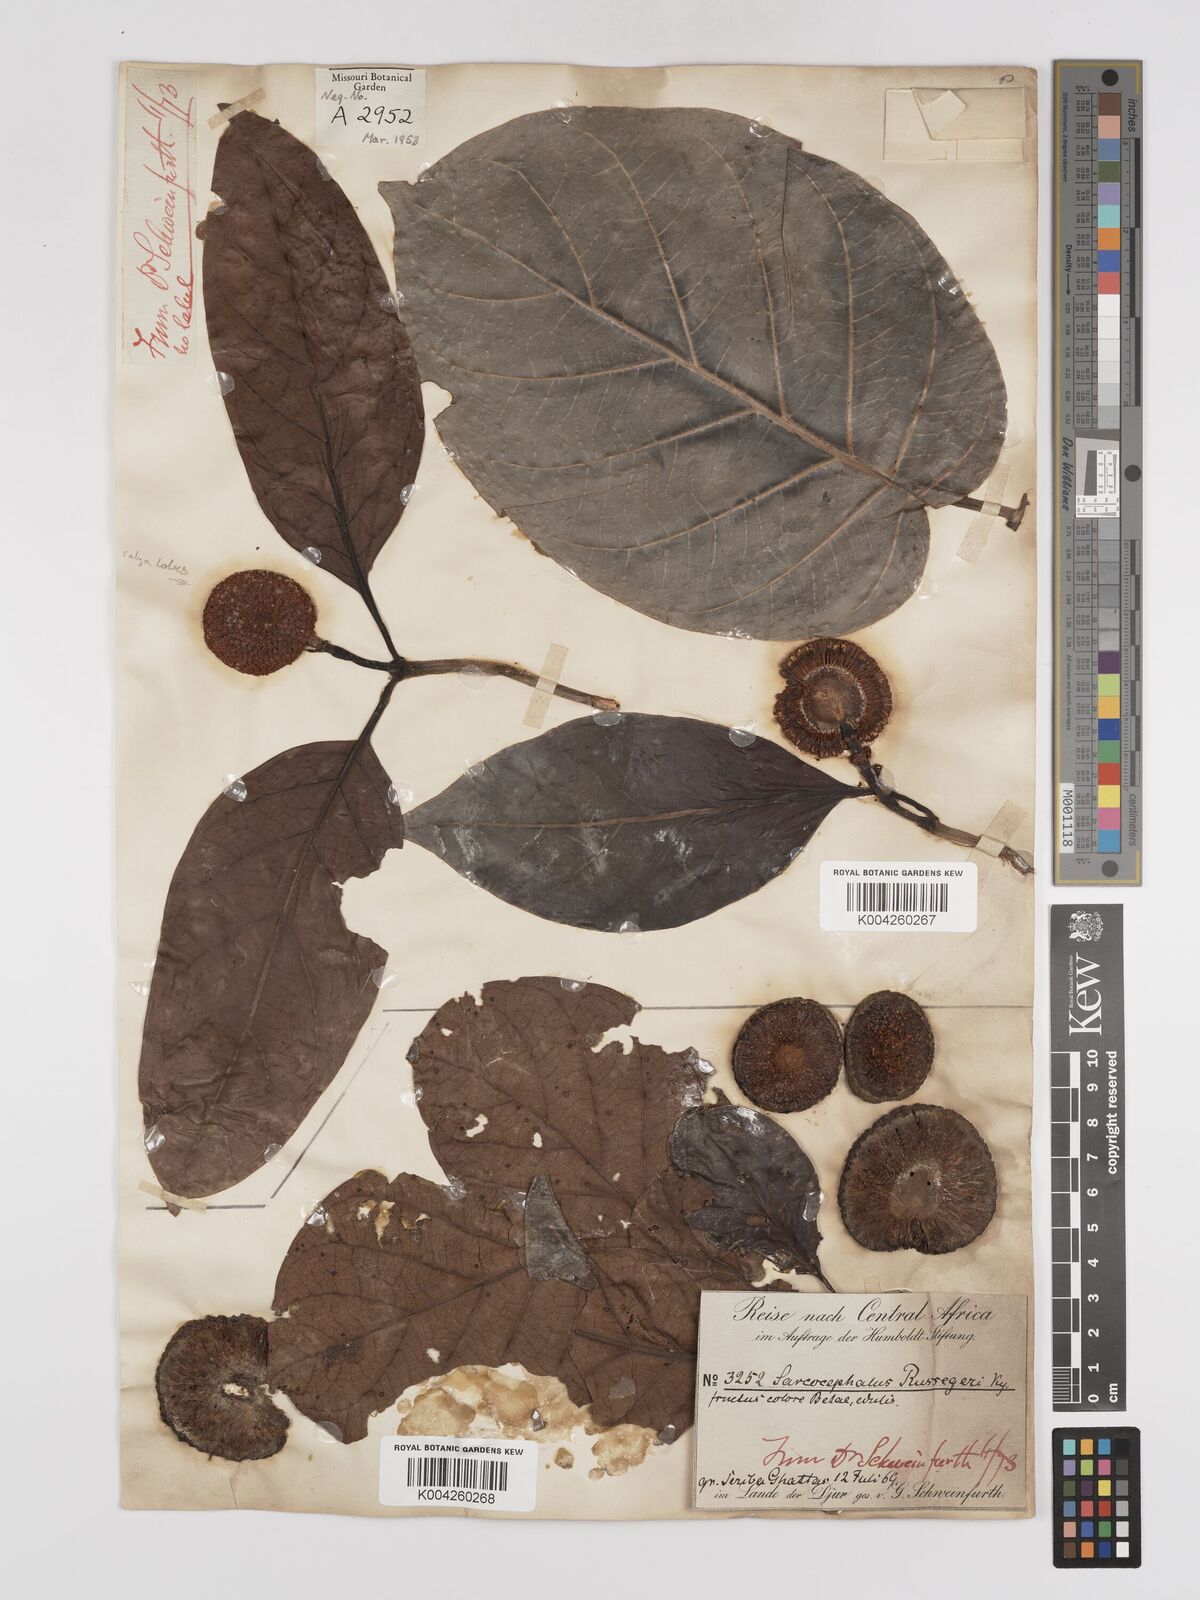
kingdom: Plantae
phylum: Tracheophyta
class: Magnoliopsida
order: Gentianales
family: Rubiaceae
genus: Nauclea
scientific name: Nauclea
